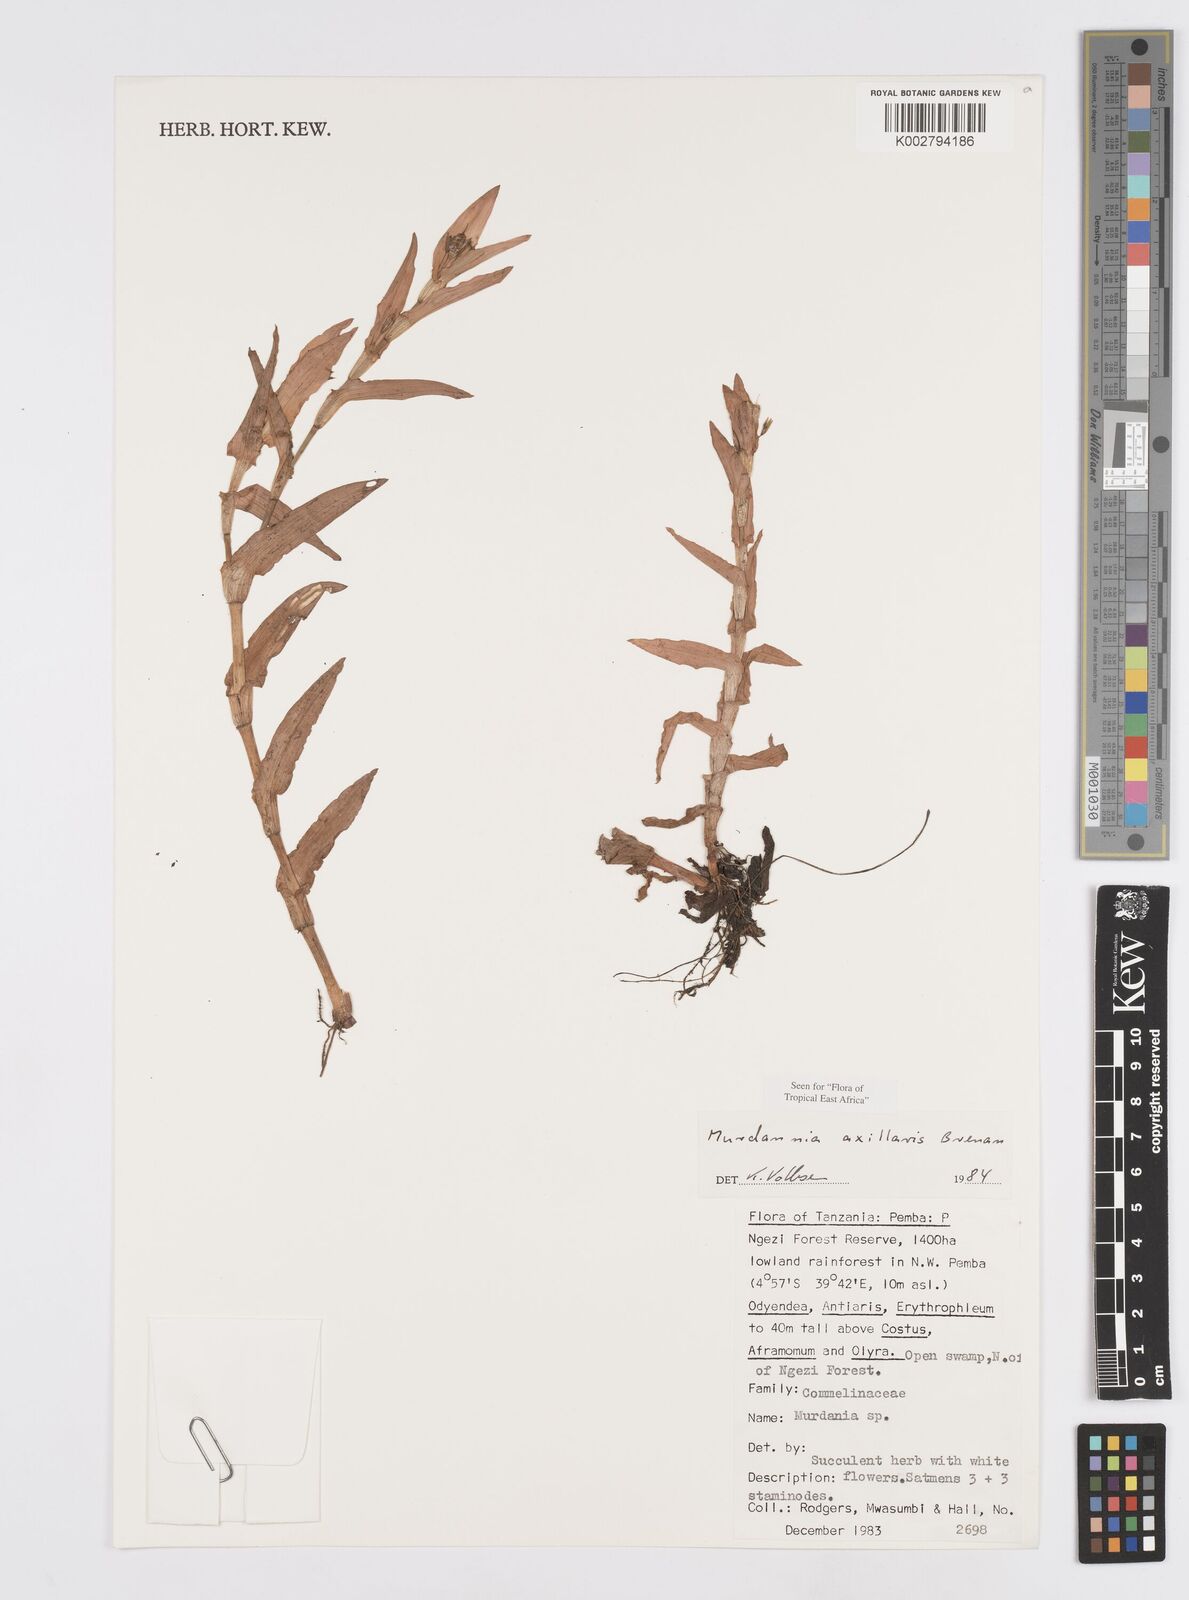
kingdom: Plantae
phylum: Tracheophyta
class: Liliopsida
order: Commelinales
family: Commelinaceae
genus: Murdannia
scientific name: Murdannia axillaris
